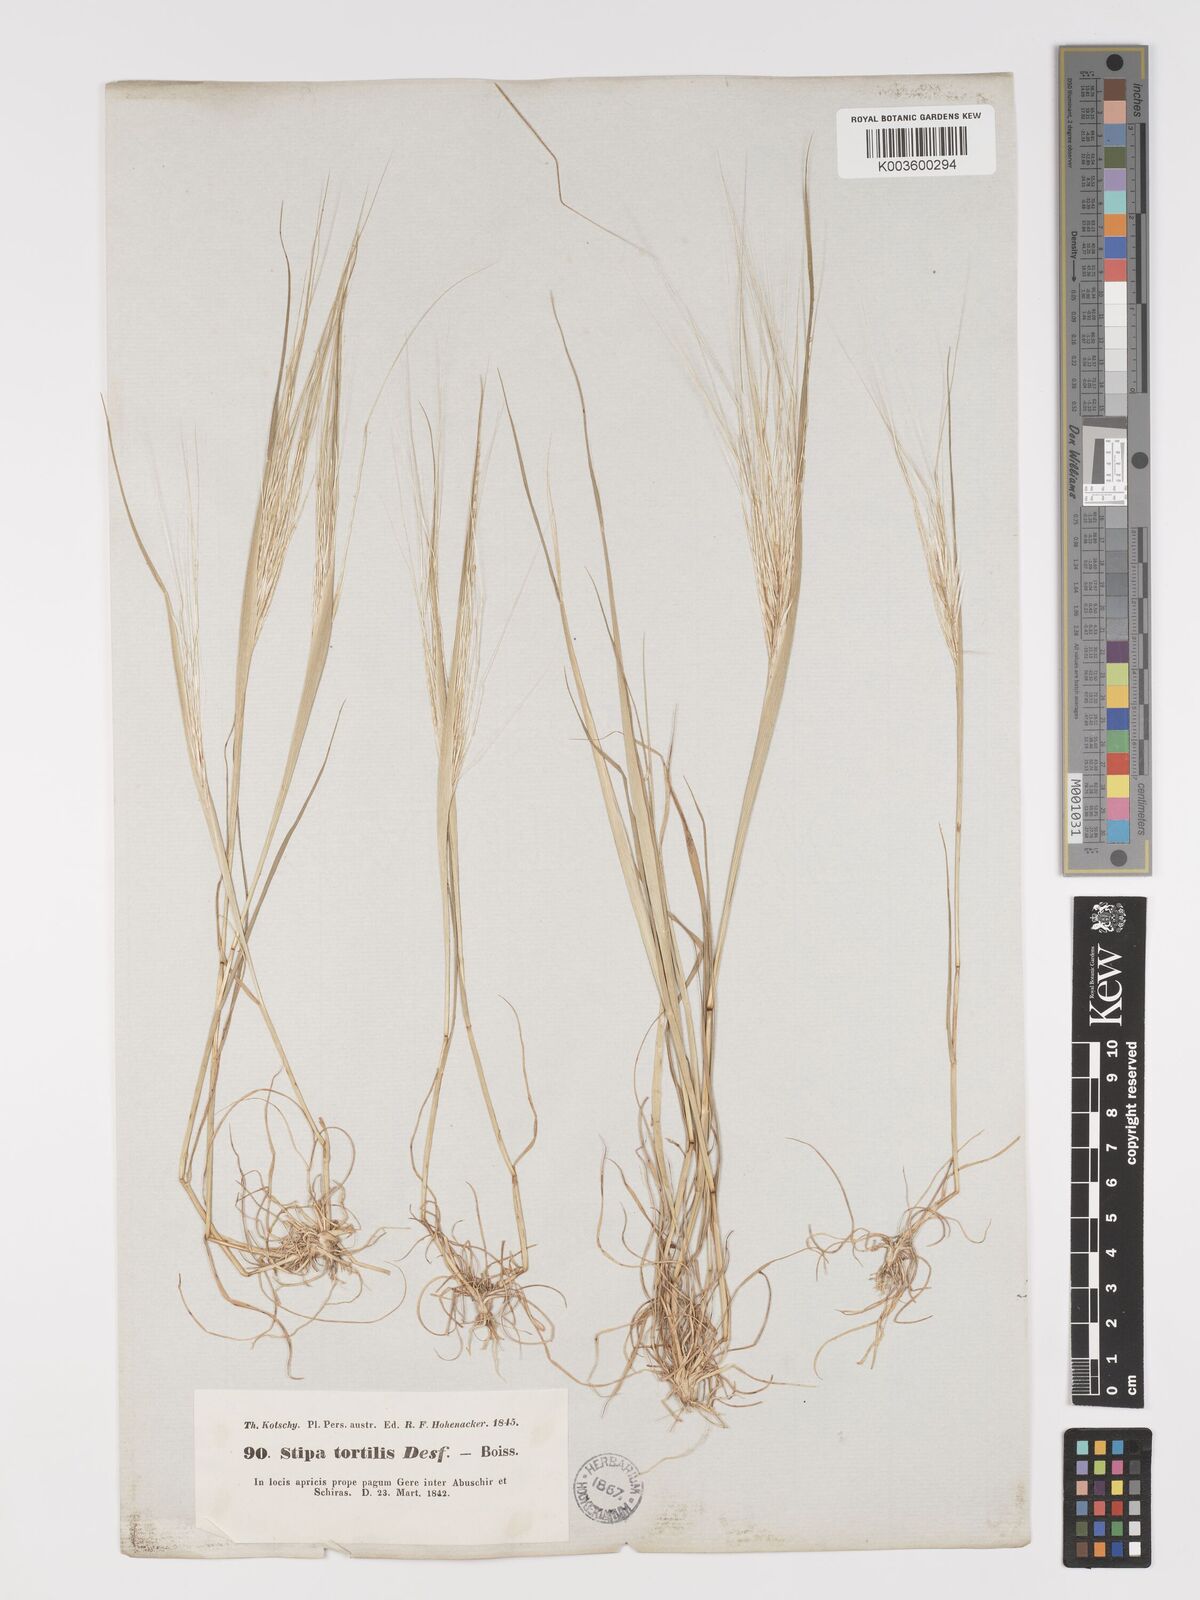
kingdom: Plantae
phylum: Tracheophyta
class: Liliopsida
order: Poales
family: Poaceae
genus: Stipellula
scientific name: Stipellula capensis
